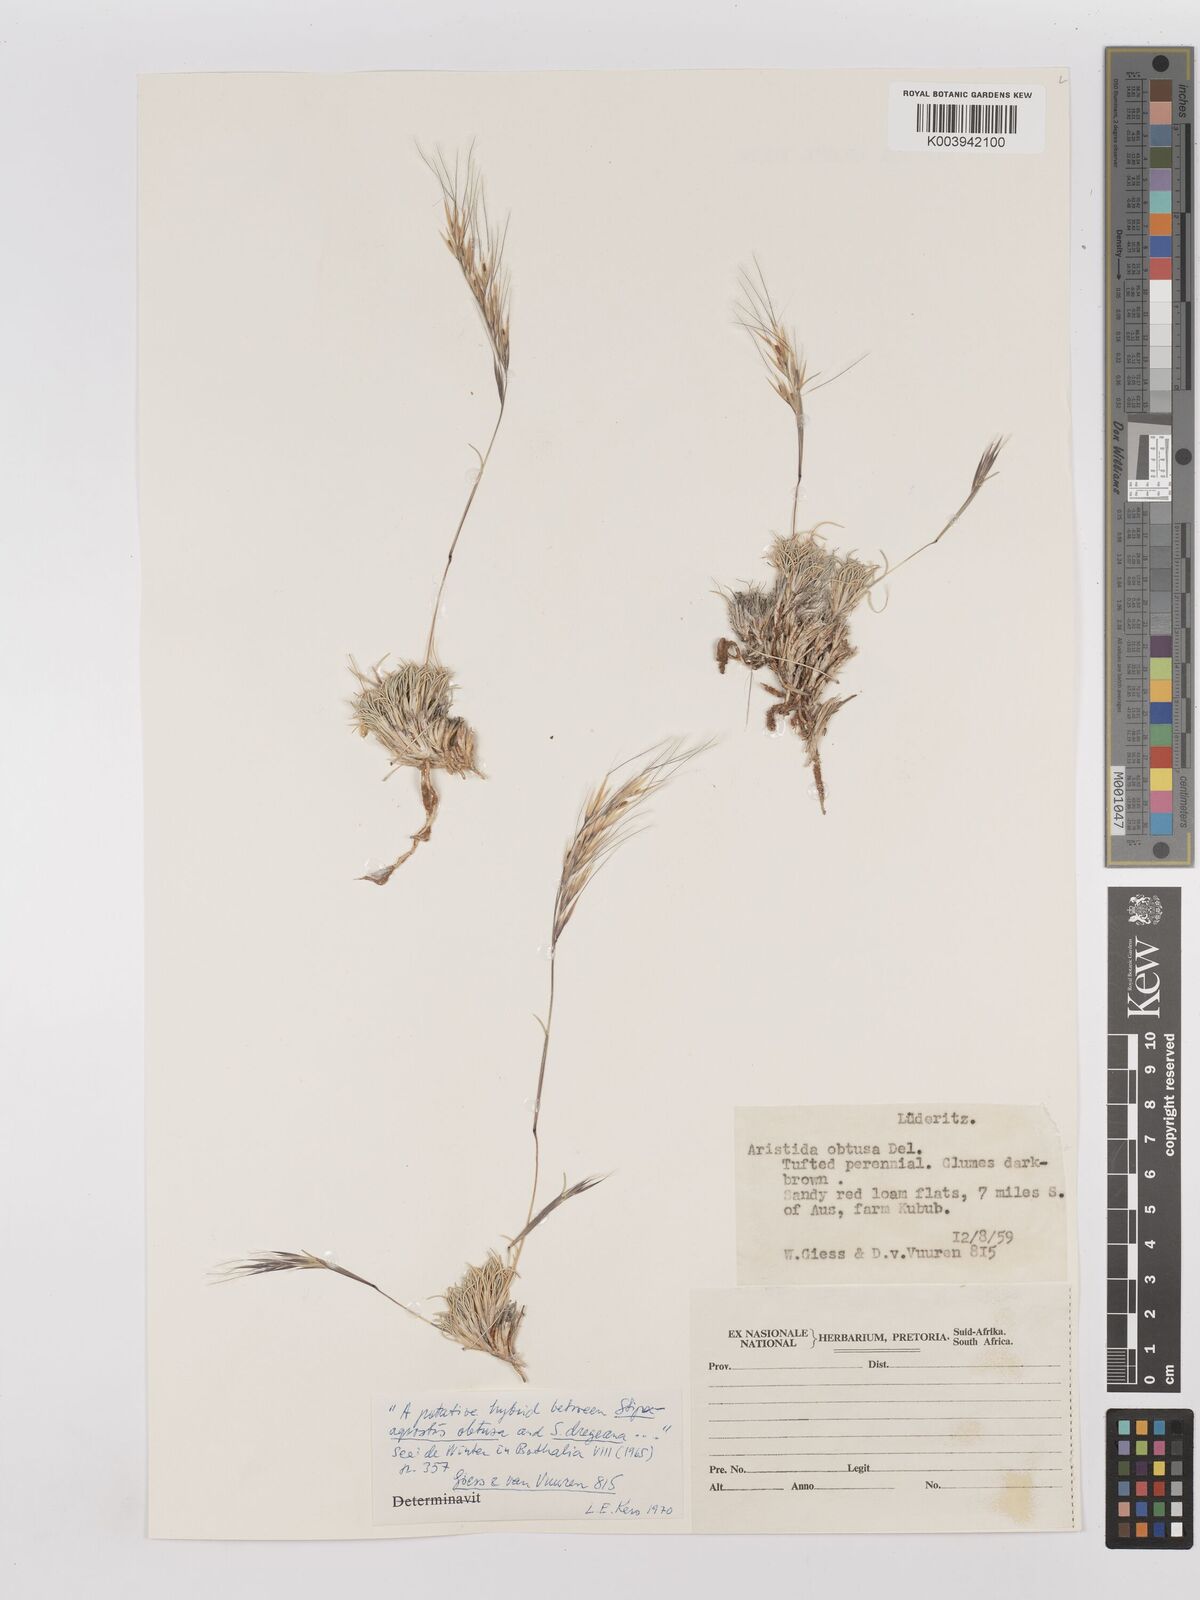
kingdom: Plantae
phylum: Tracheophyta
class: Liliopsida
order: Poales
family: Poaceae
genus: Stipagrostis
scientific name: Stipagrostis obtusa
